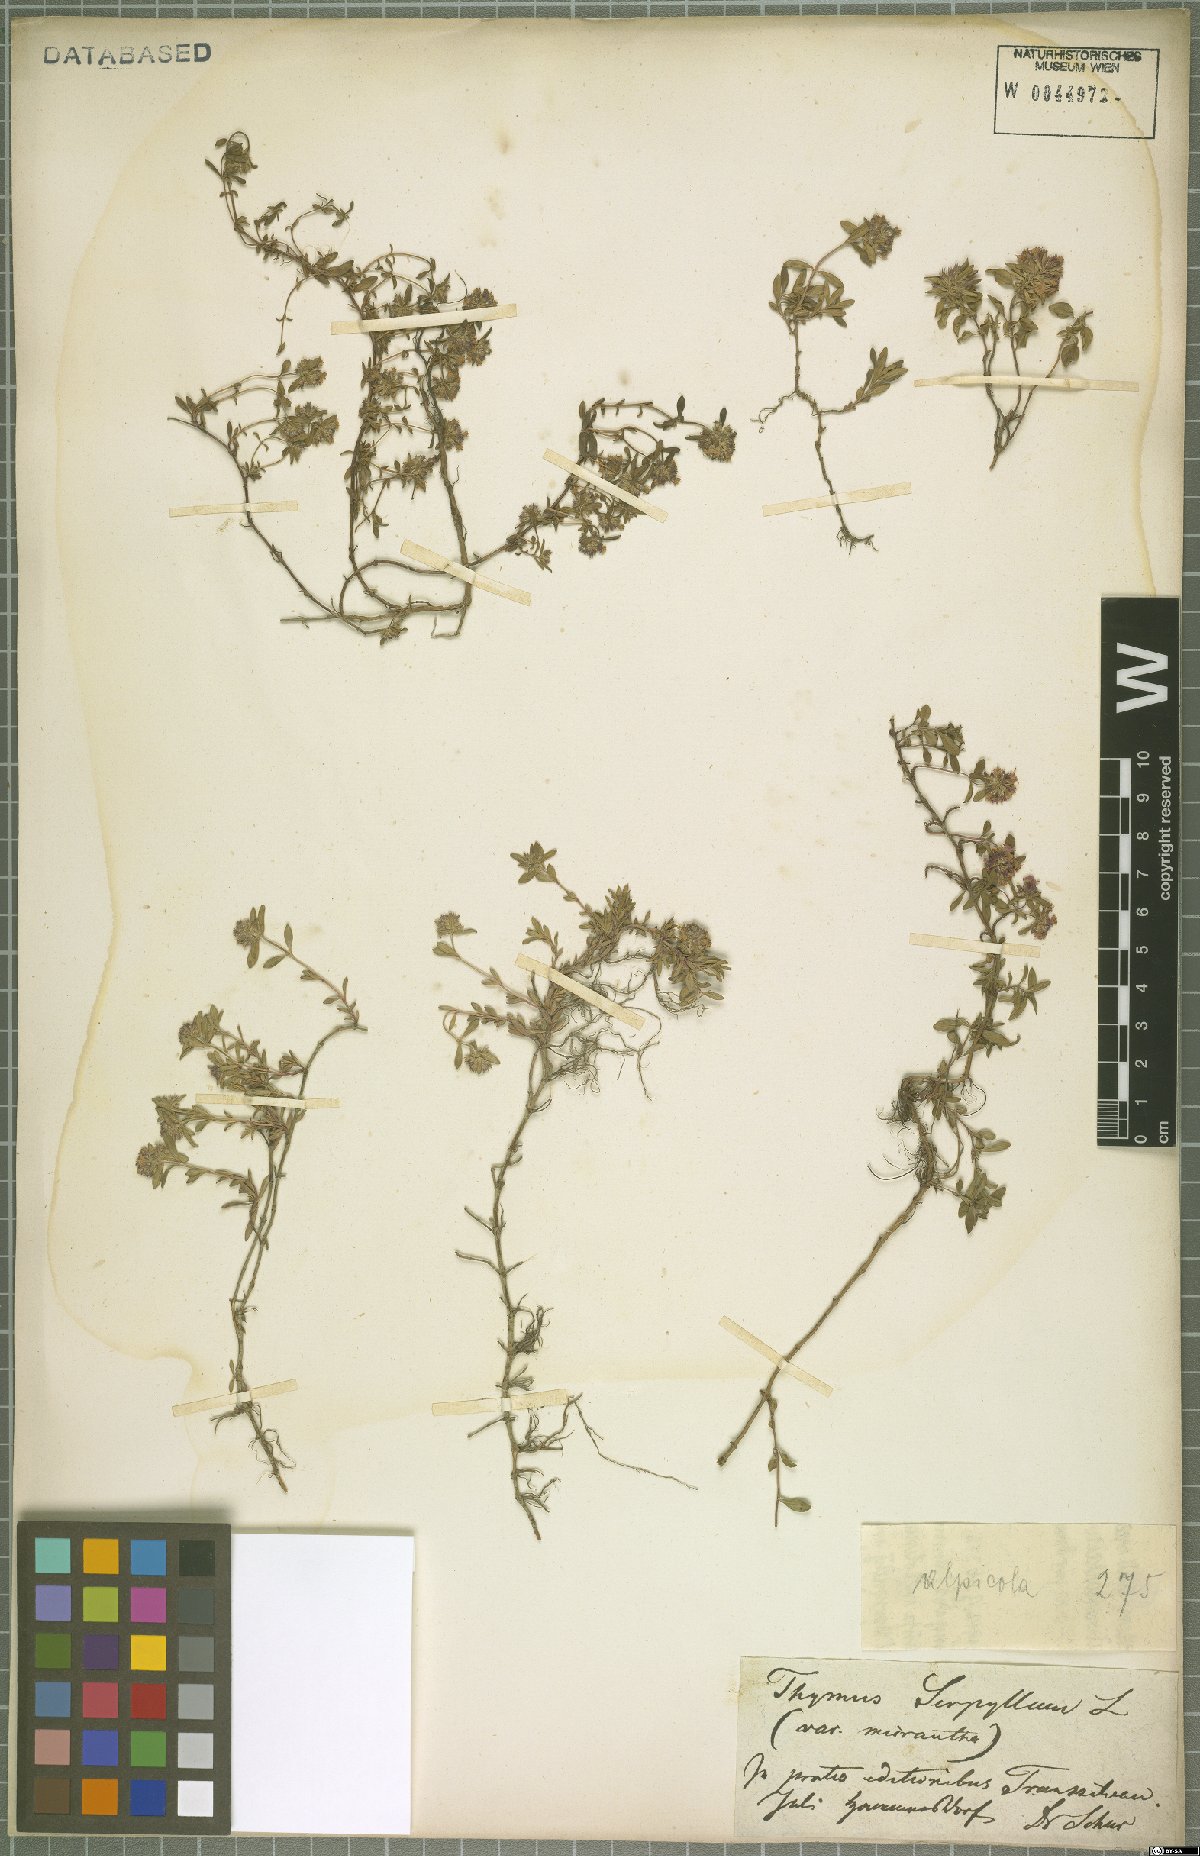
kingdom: Plantae
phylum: Tracheophyta
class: Magnoliopsida
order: Lamiales
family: Lamiaceae
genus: Thymus
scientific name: Thymus praecox
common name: Wild thyme
